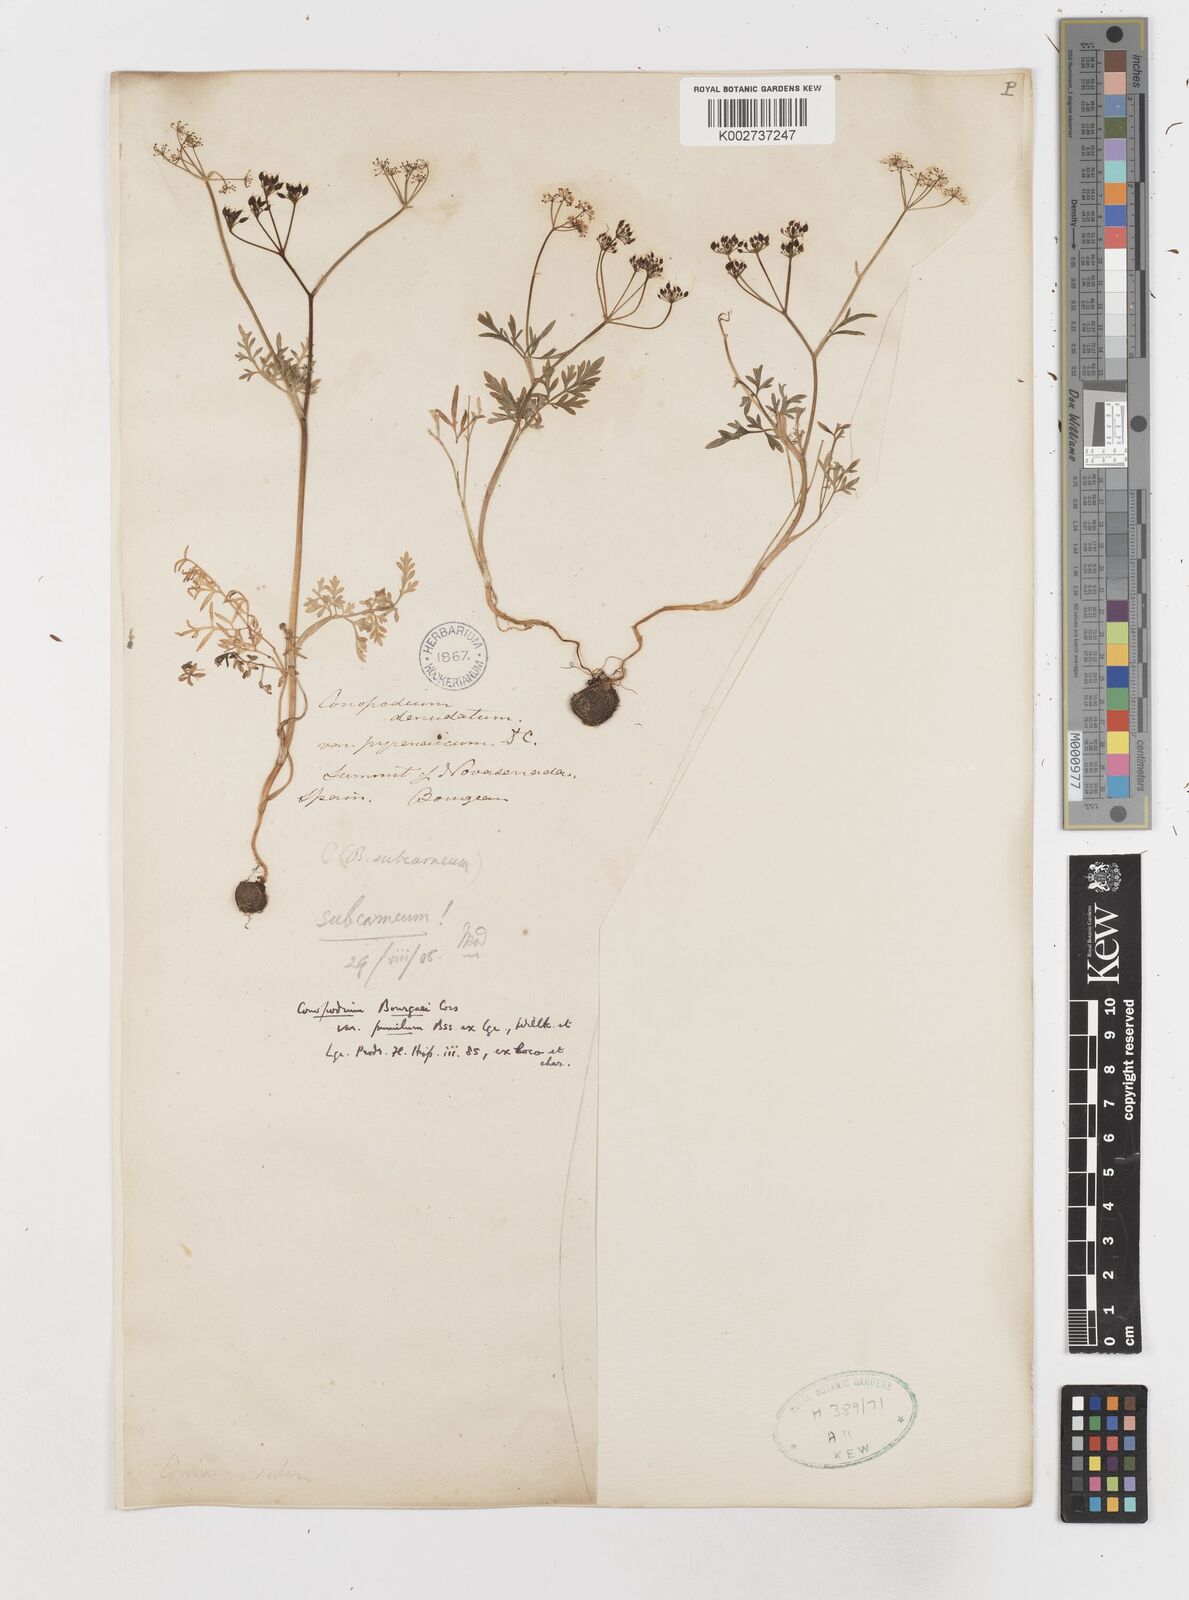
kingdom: Plantae
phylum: Tracheophyta
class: Magnoliopsida
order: Apiales
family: Apiaceae
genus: Conopodium
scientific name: Conopodium pyrenaeum
